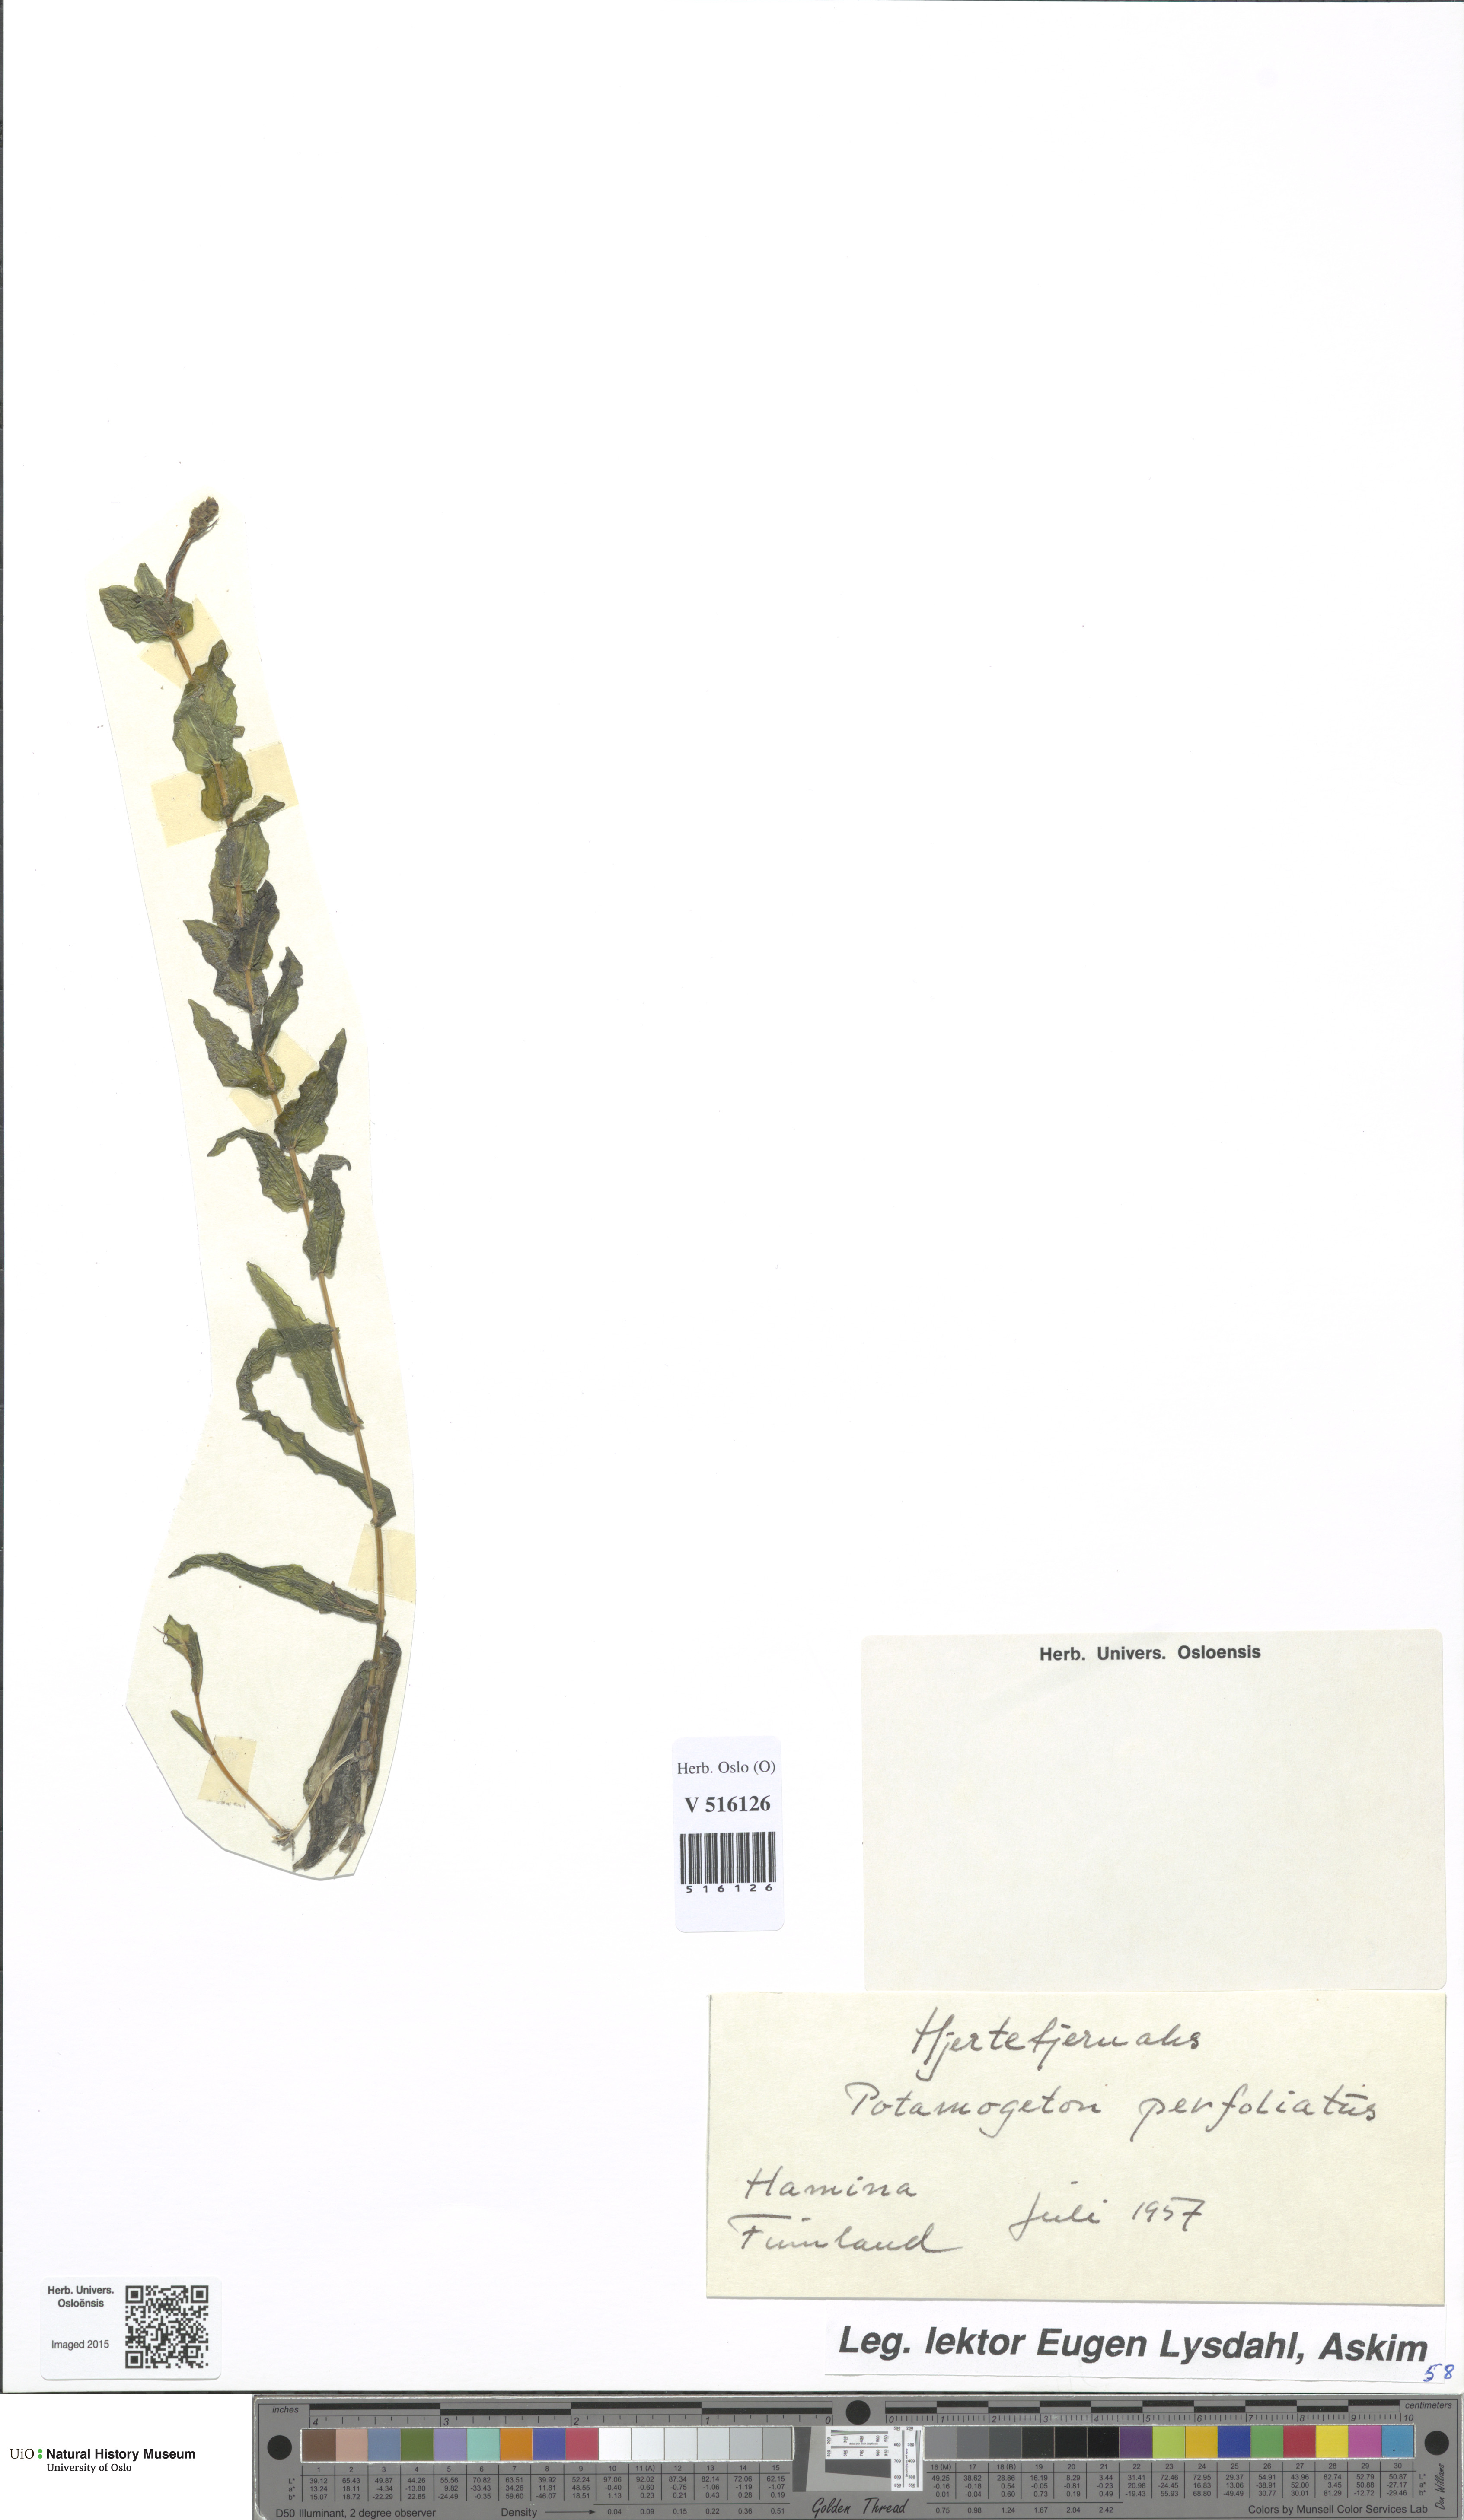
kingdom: Plantae
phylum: Tracheophyta
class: Liliopsida
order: Alismatales
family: Potamogetonaceae
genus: Potamogeton
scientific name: Potamogeton perfoliatus
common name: Perfoliate pondweed
